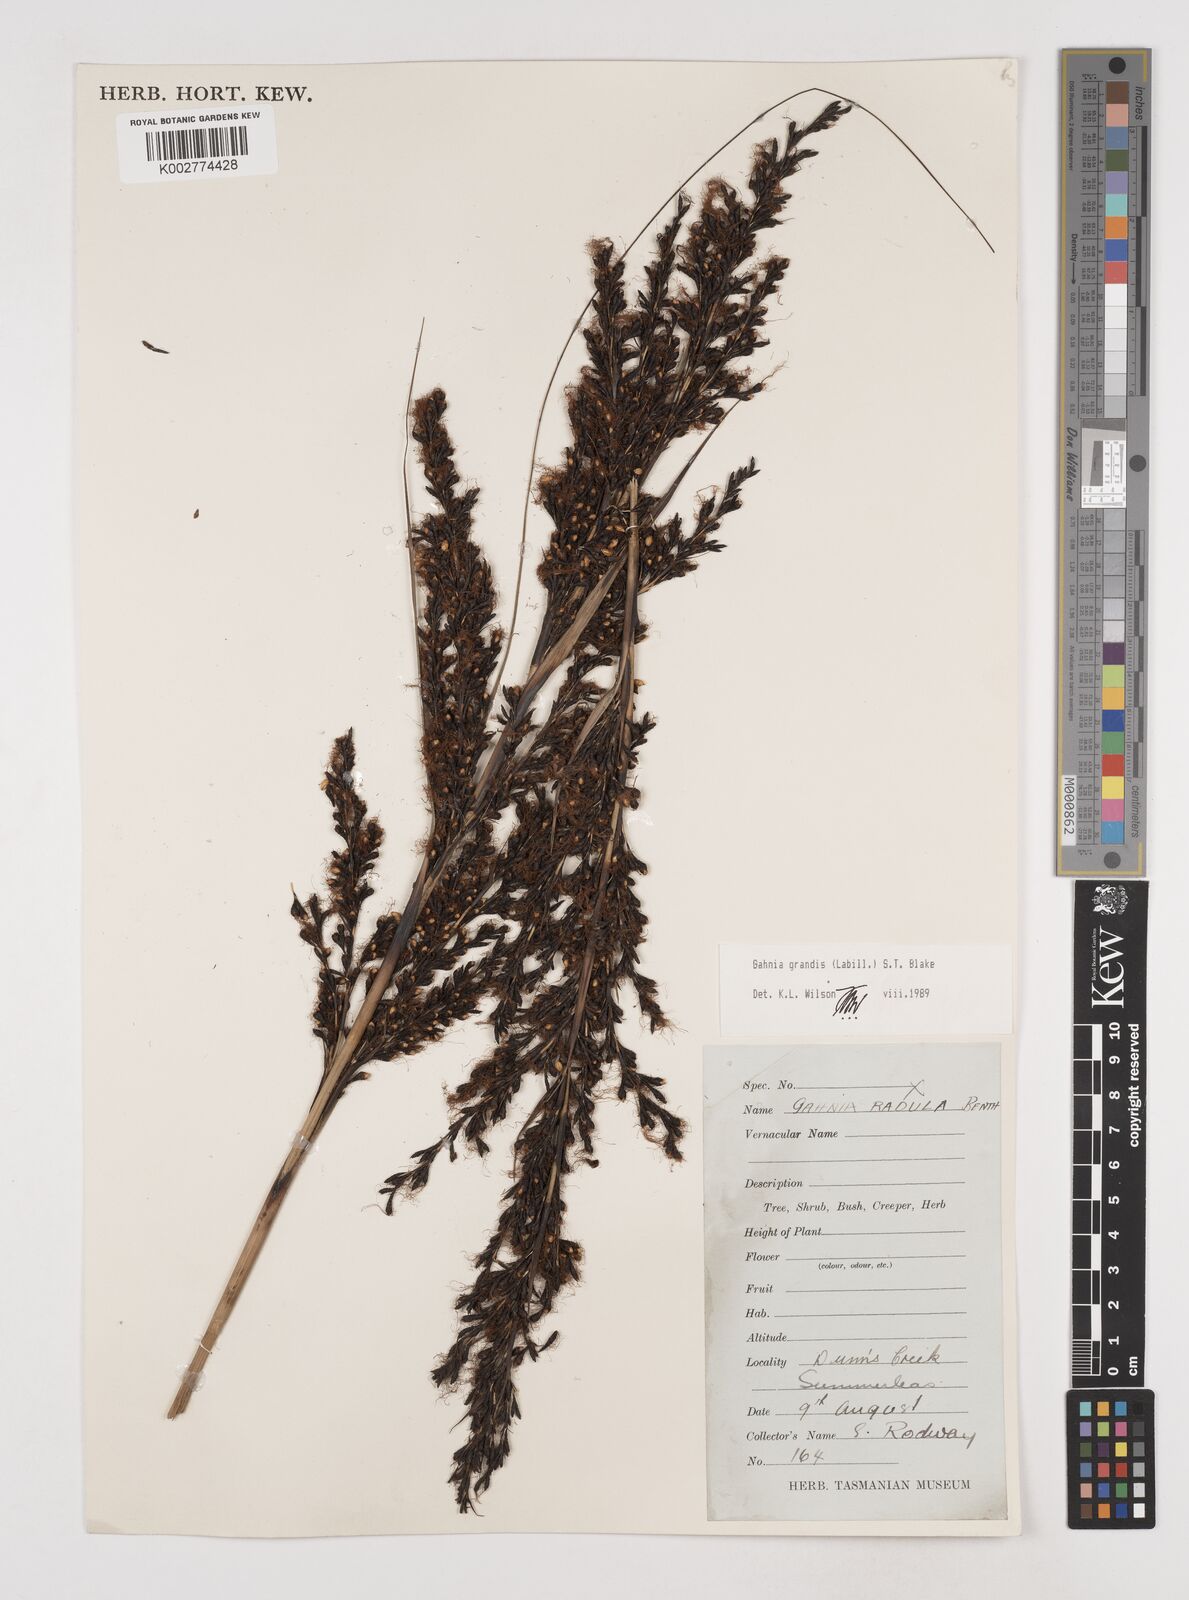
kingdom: Plantae
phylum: Tracheophyta
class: Liliopsida
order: Poales
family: Cyperaceae
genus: Gahnia
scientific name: Gahnia grandis
